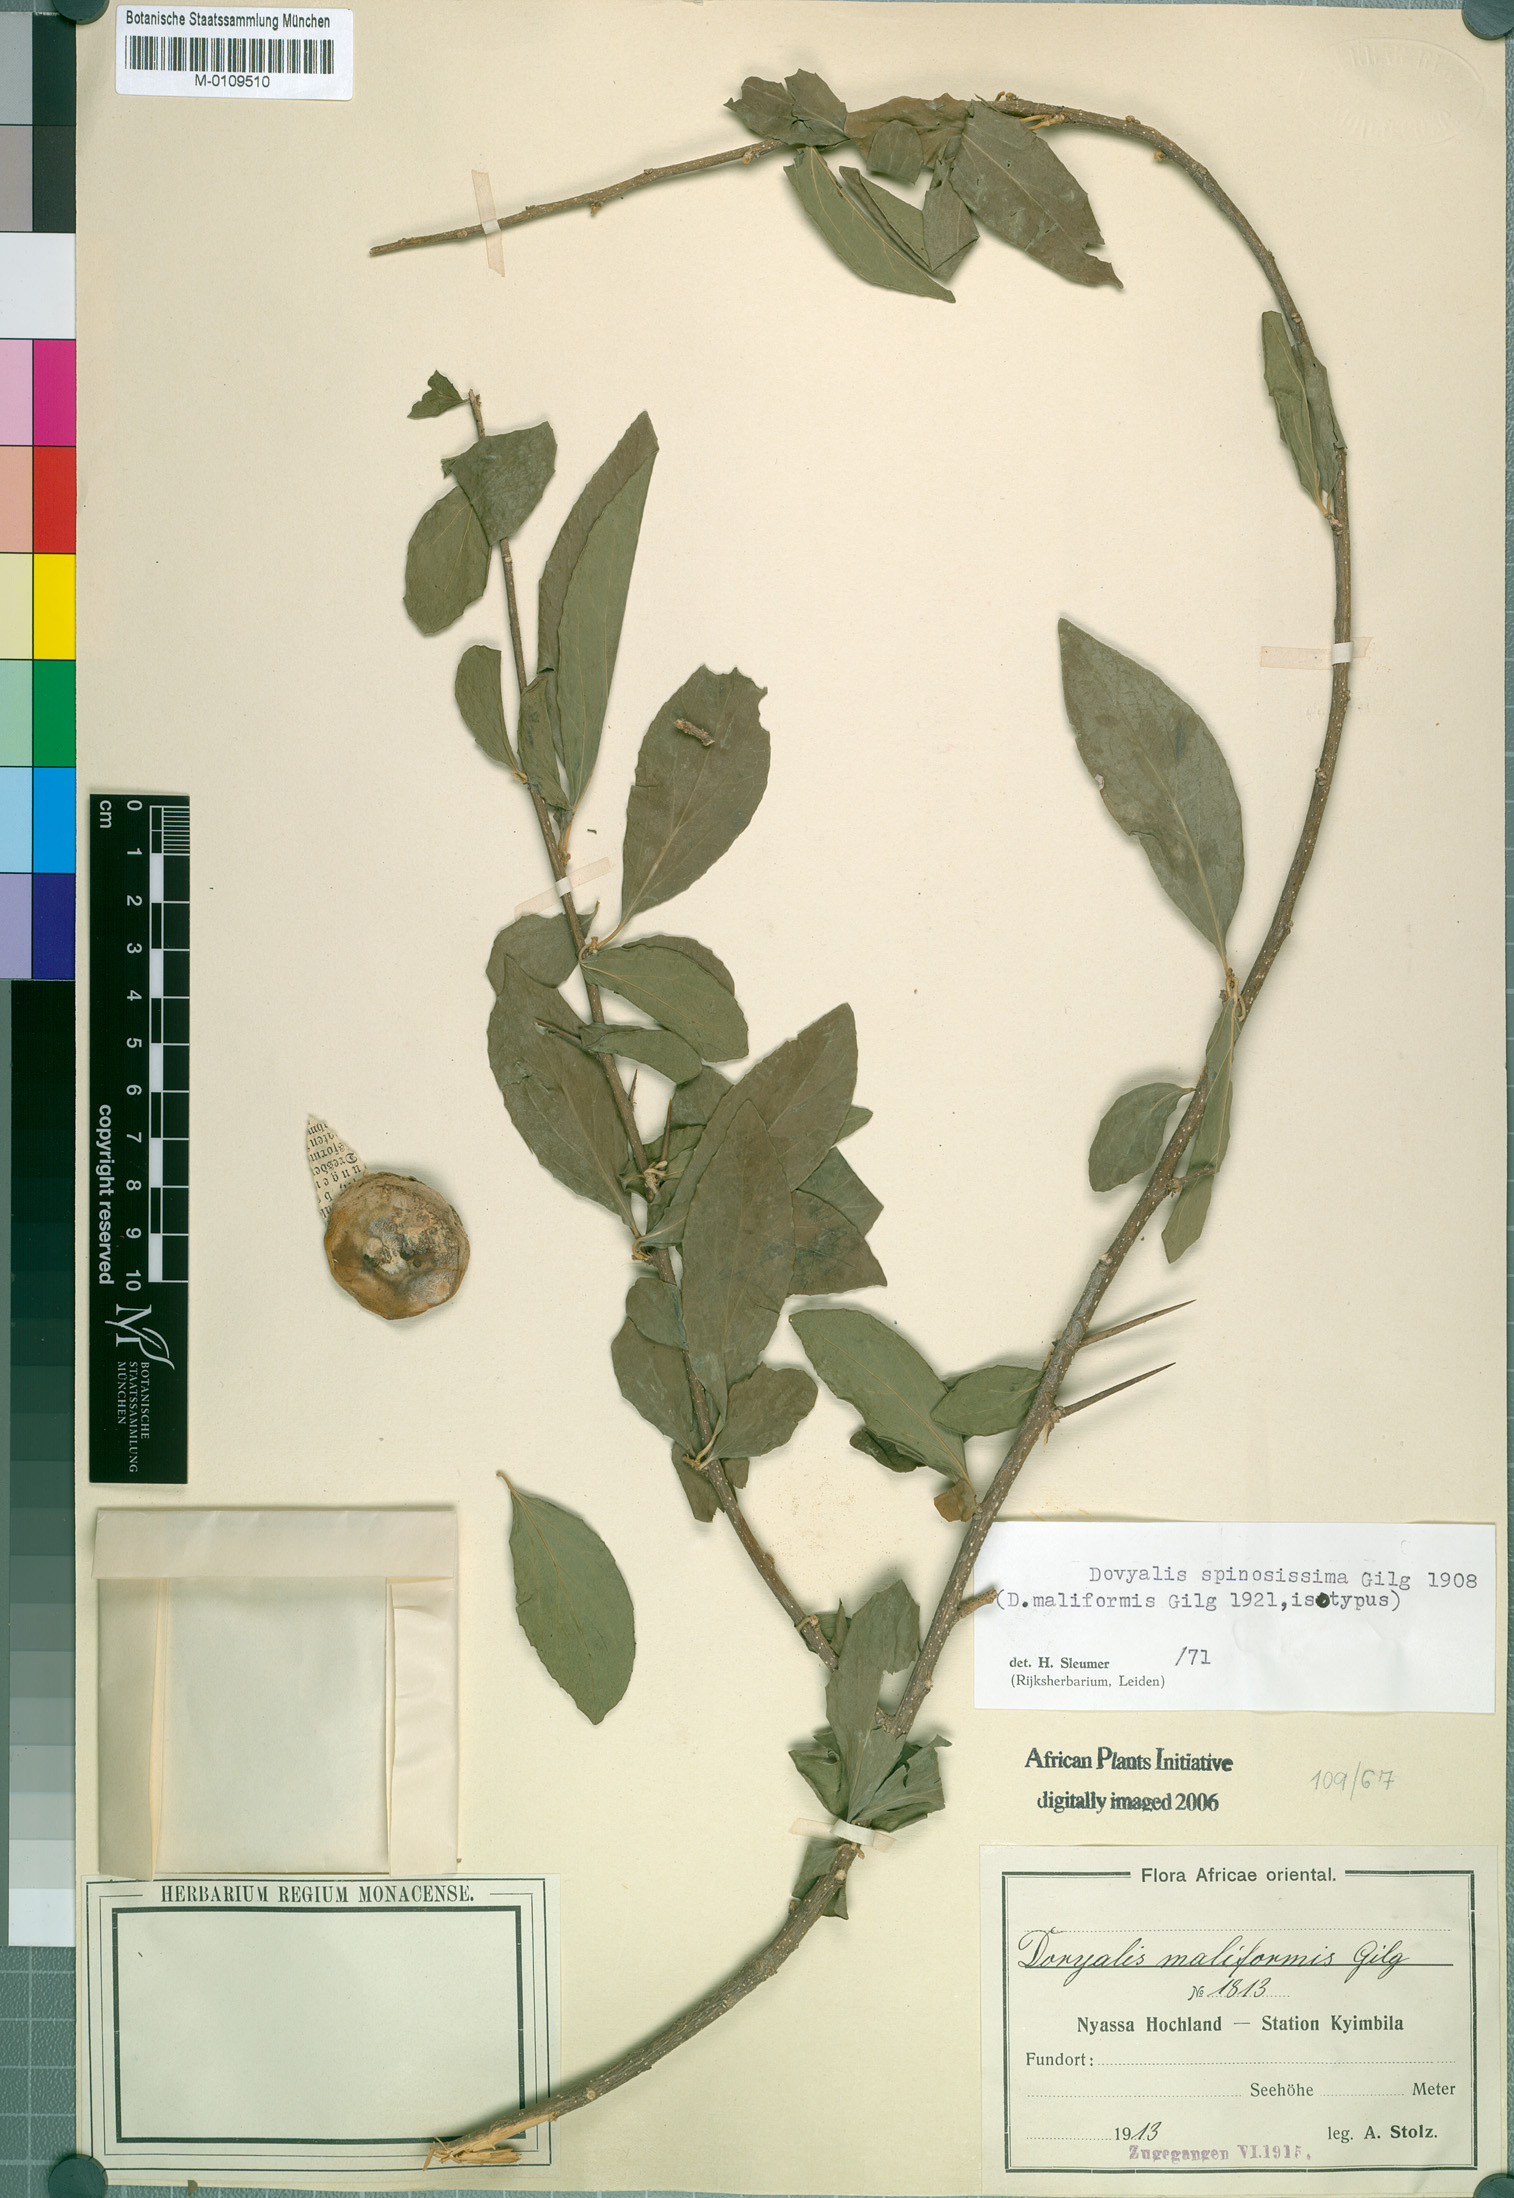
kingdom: Plantae
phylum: Tracheophyta
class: Magnoliopsida
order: Malpighiales
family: Salicaceae
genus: Dovyalis
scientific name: Dovyalis spinosissima
